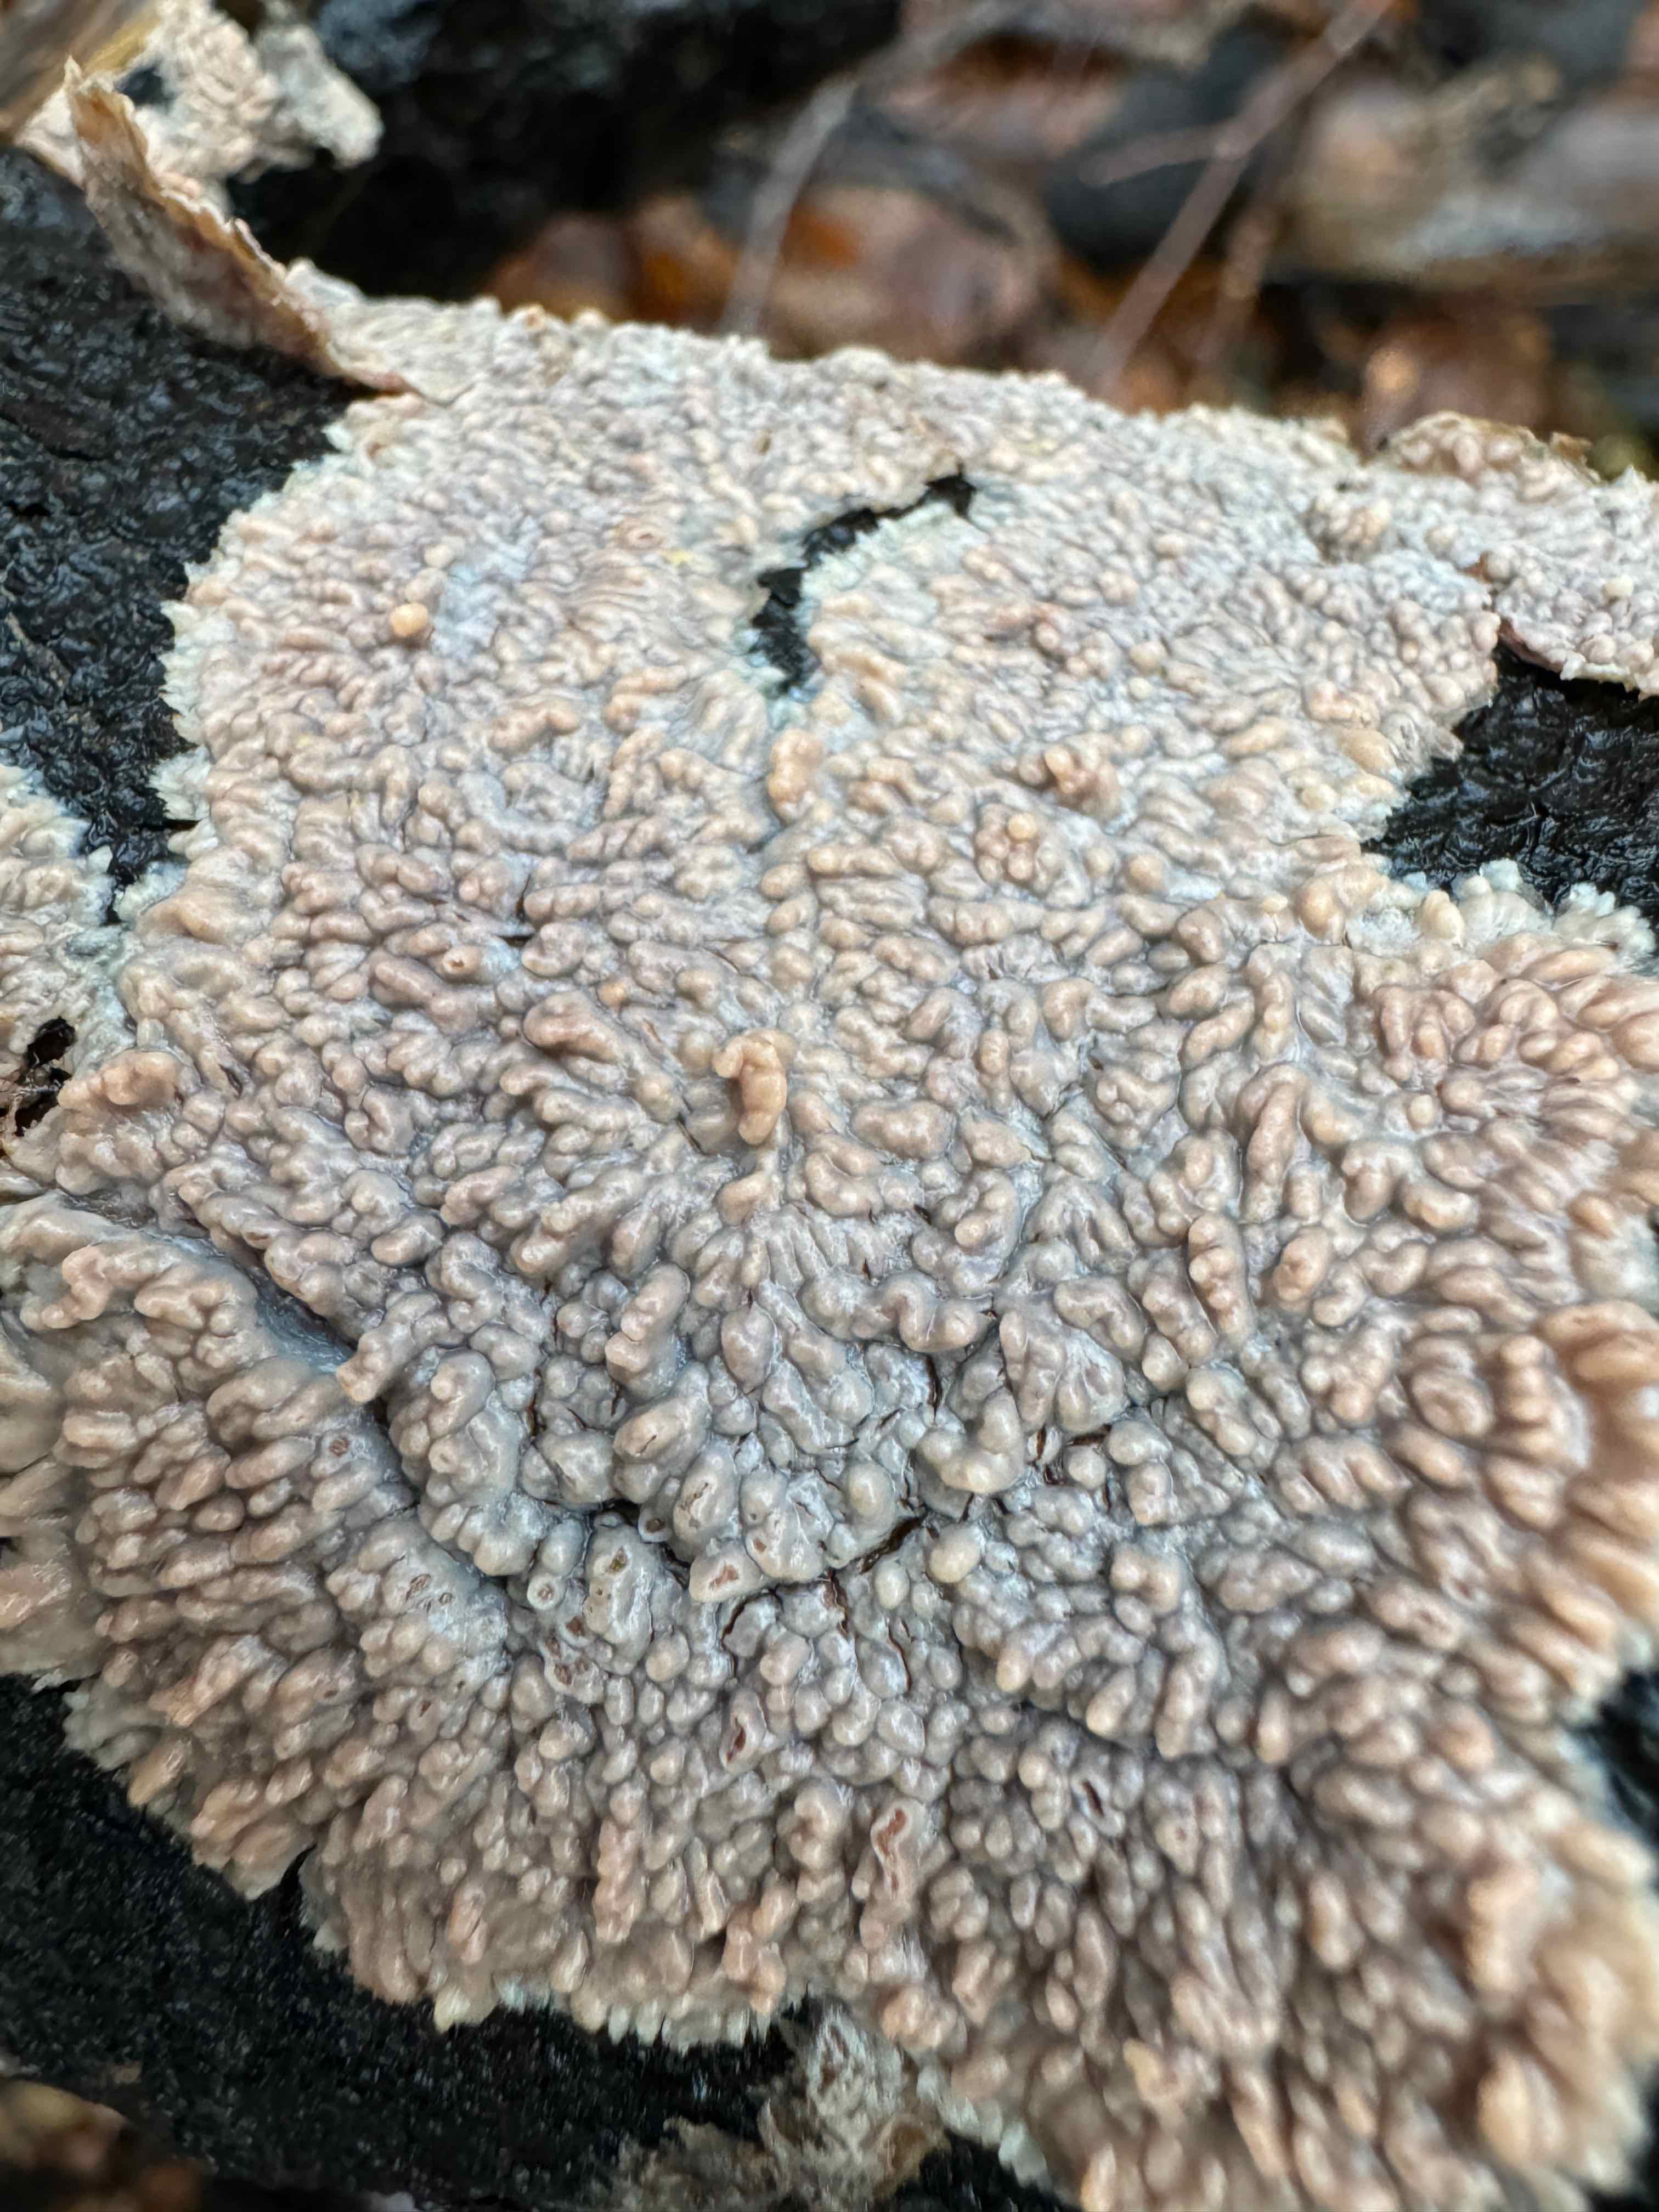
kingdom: Fungi
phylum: Basidiomycota
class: Agaricomycetes
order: Polyporales
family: Meruliaceae
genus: Phlebia
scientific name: Phlebia radiata
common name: stråle-åresvamp
